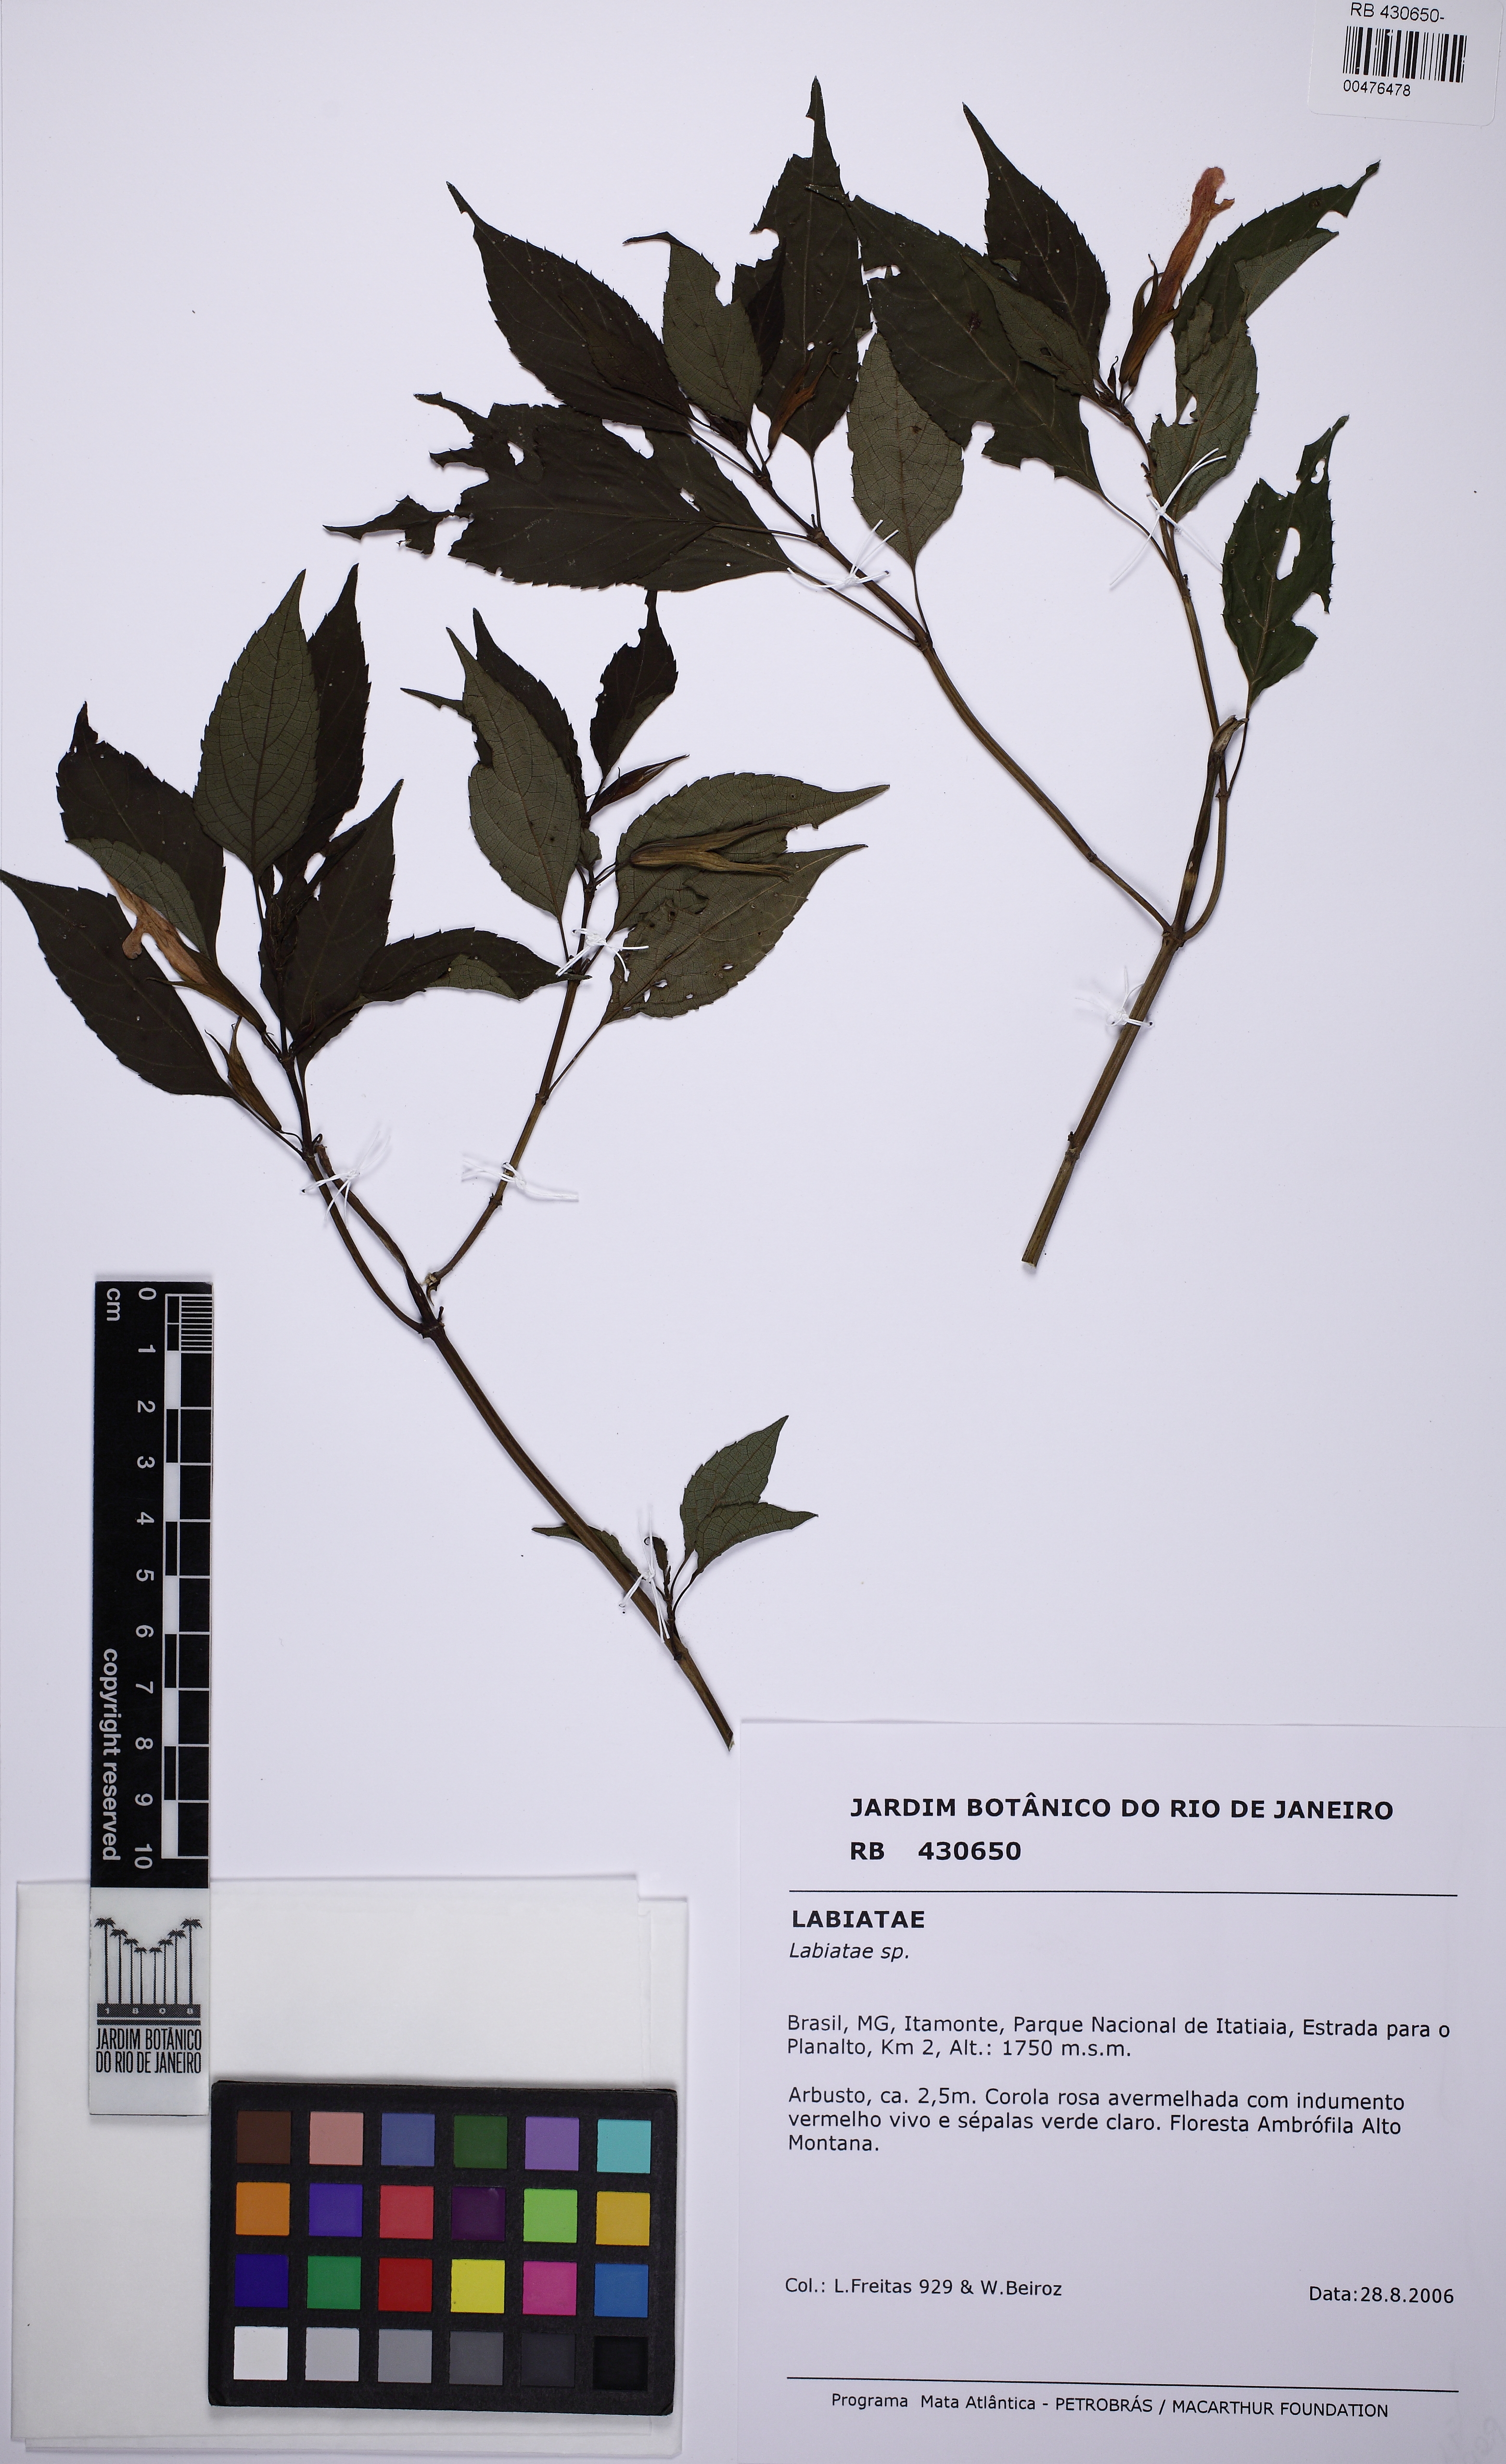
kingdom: Plantae
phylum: Tracheophyta
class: Magnoliopsida
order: Lamiales
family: Lamiaceae
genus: Salvia
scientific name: Salvia sellowiana
